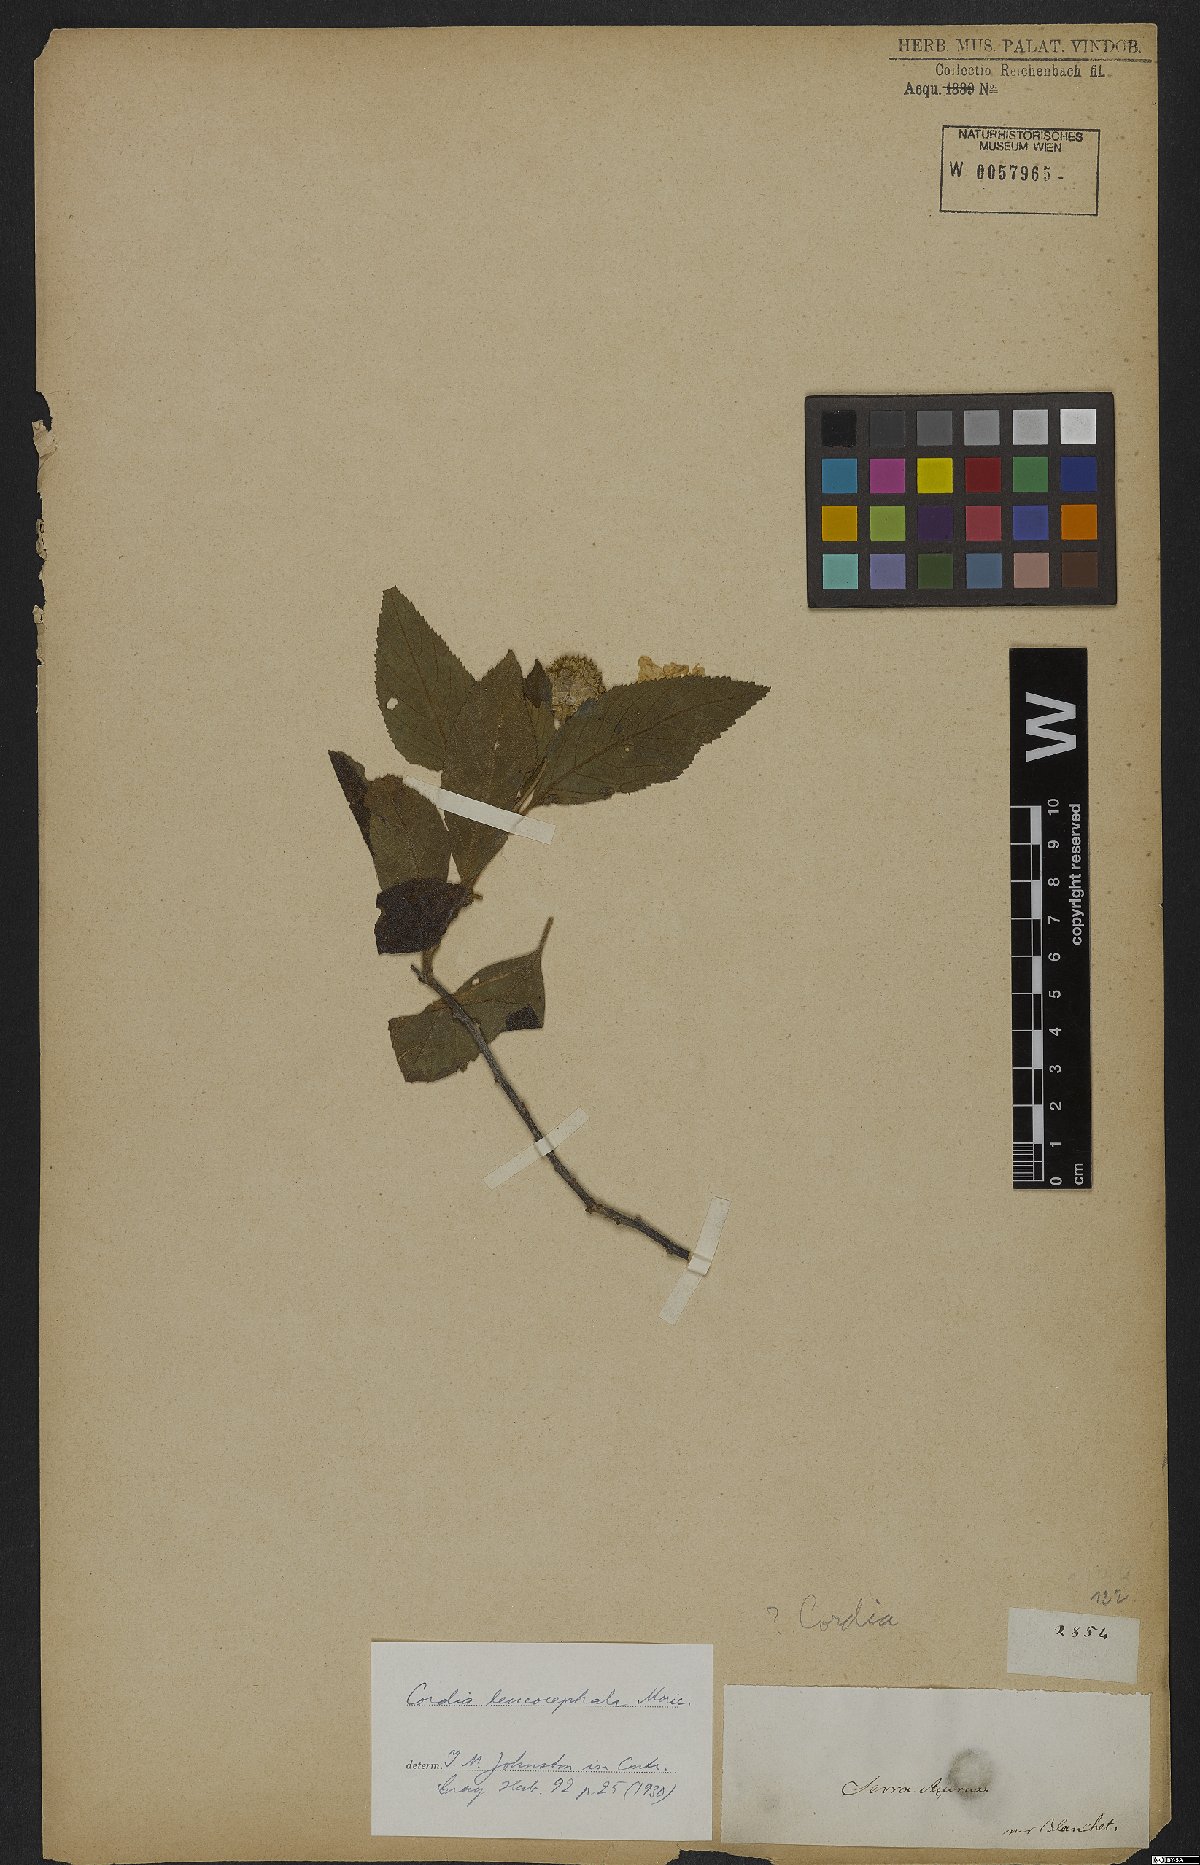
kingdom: Plantae
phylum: Tracheophyta
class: Magnoliopsida
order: Boraginales
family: Cordiaceae
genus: Varronia
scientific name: Varronia leucocephala
